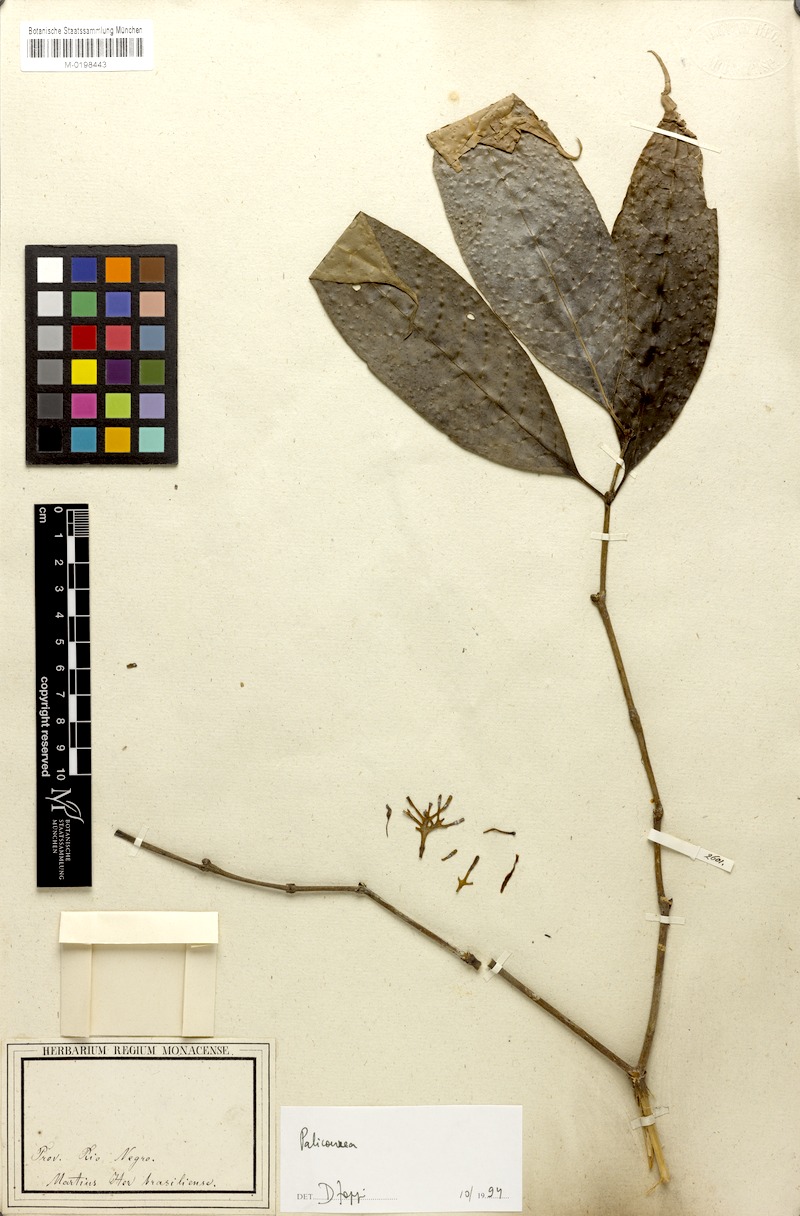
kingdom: Plantae
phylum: Tracheophyta
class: Magnoliopsida
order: Gentianales
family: Rubiaceae
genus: Palicourea
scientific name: Palicourea
